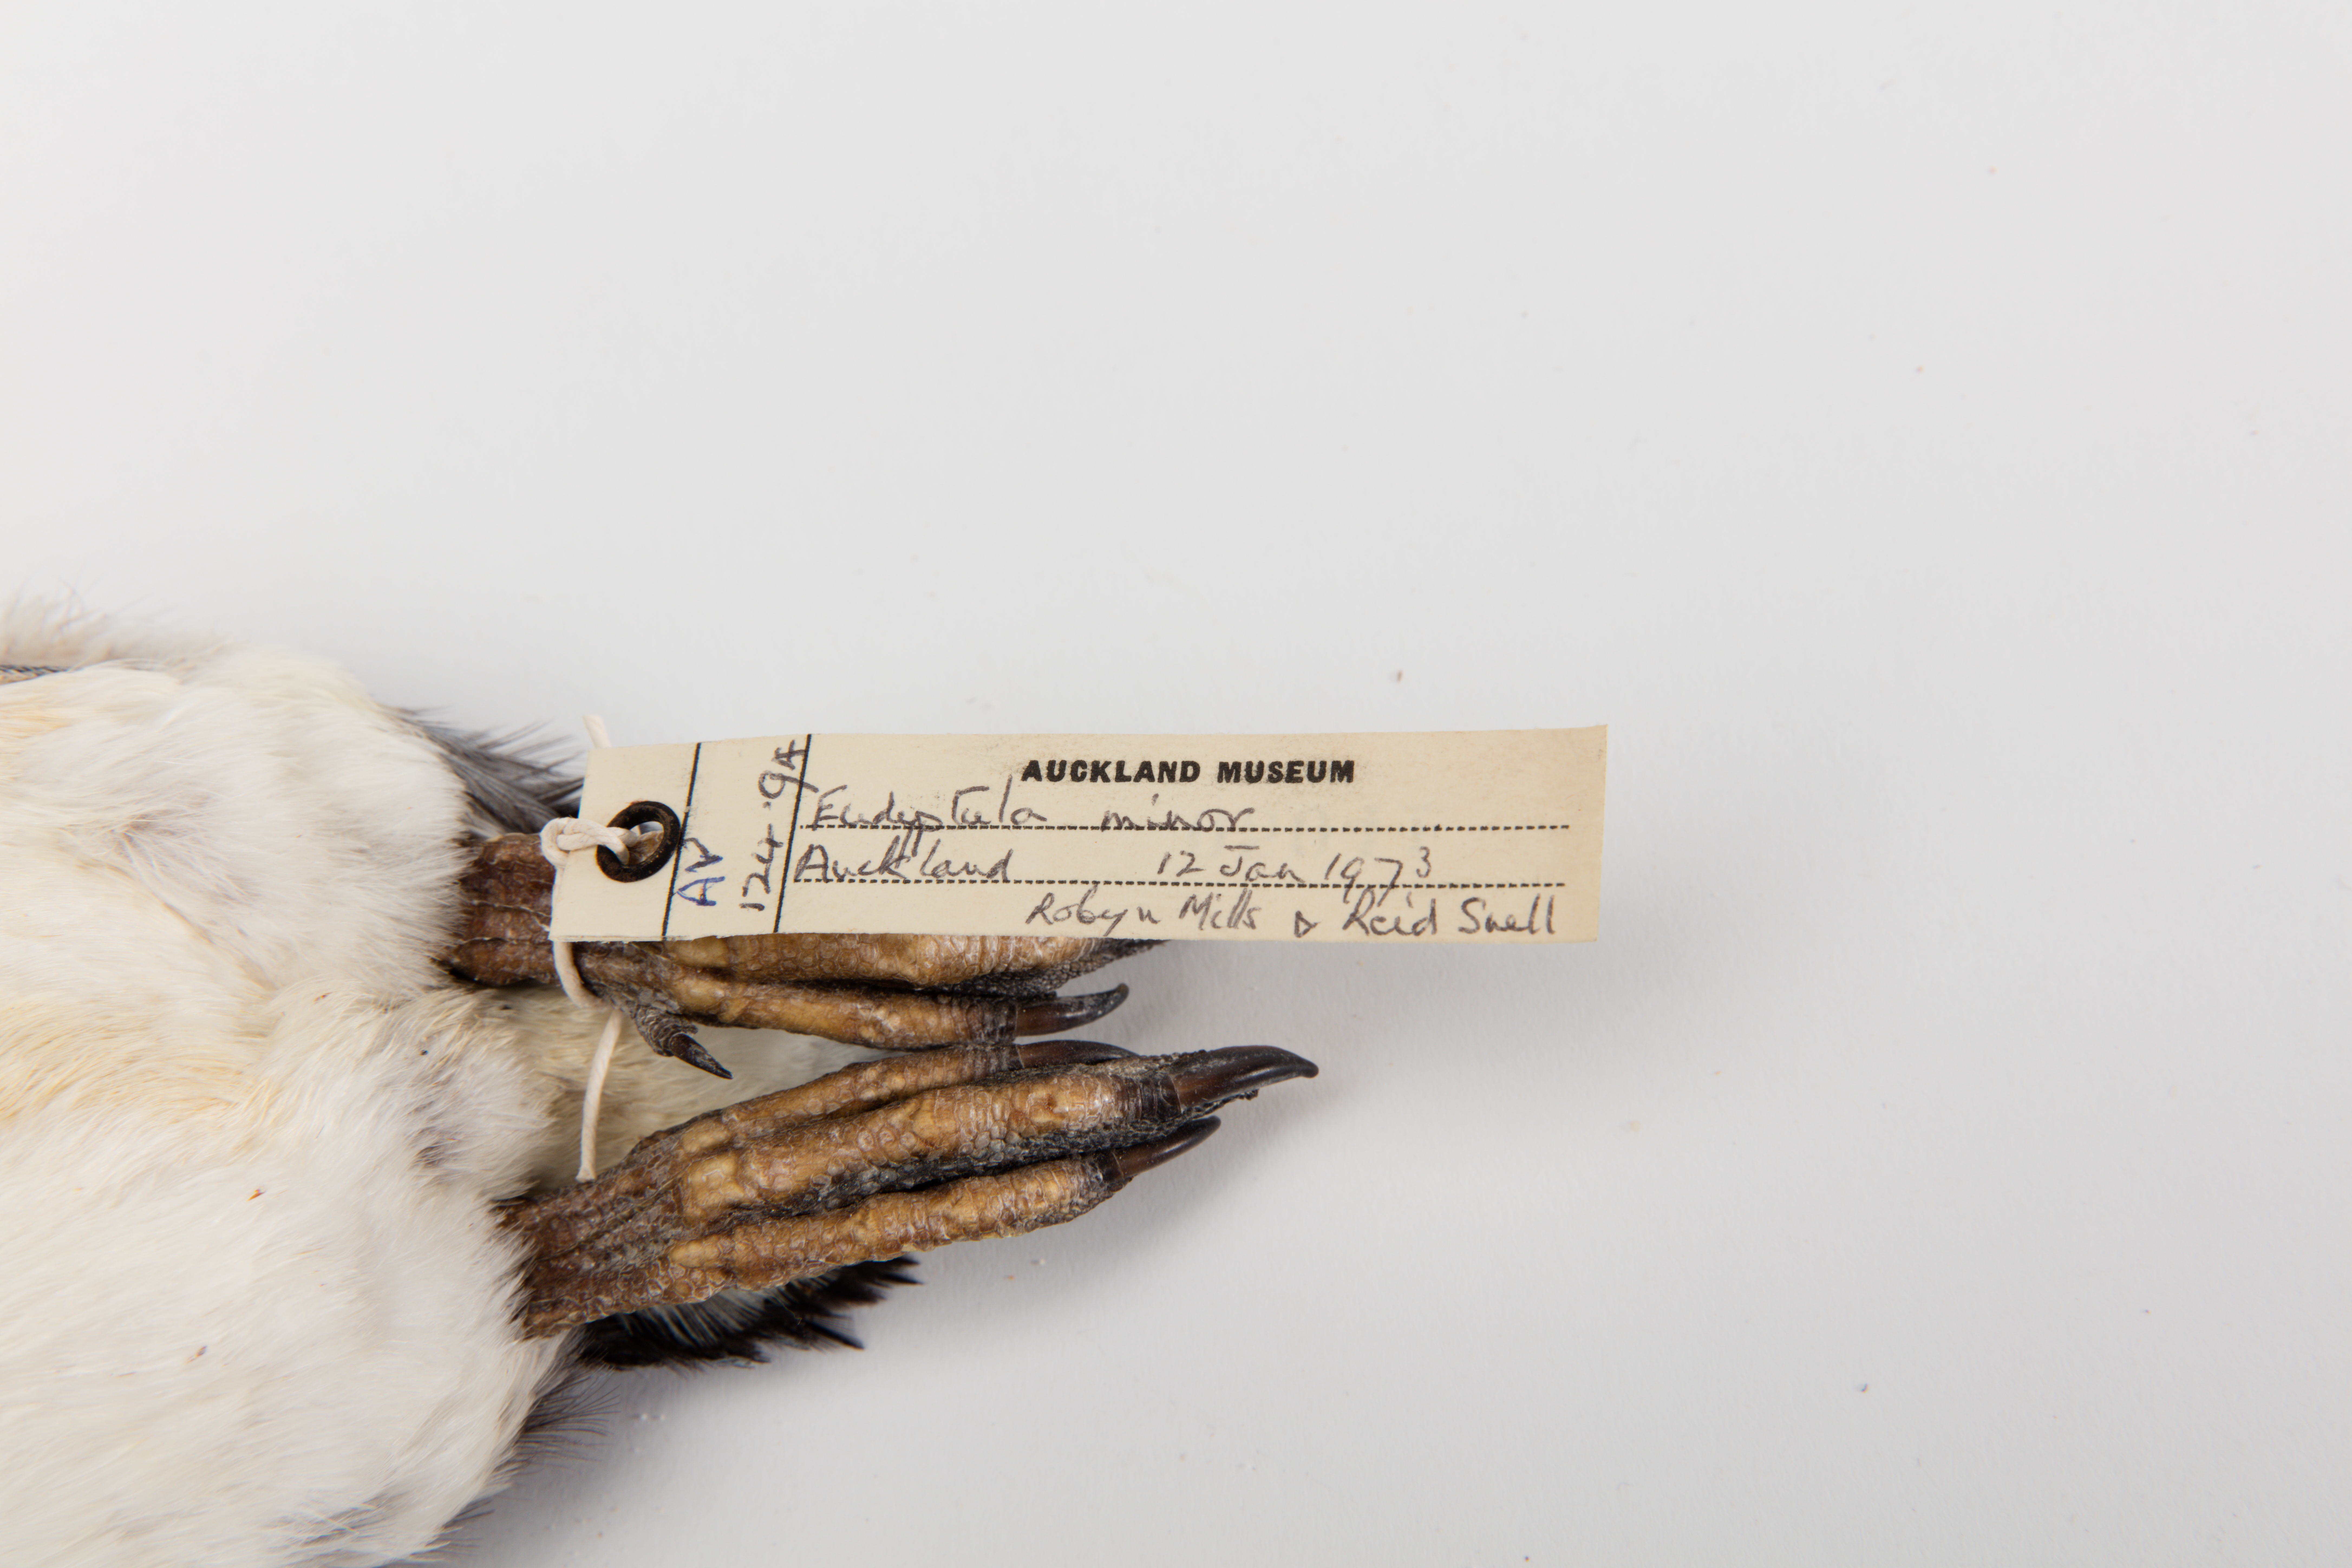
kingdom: Animalia
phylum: Chordata
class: Aves
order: Sphenisciformes
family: Spheniscidae
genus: Eudyptula
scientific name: Eudyptula minor
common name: Little penguin
